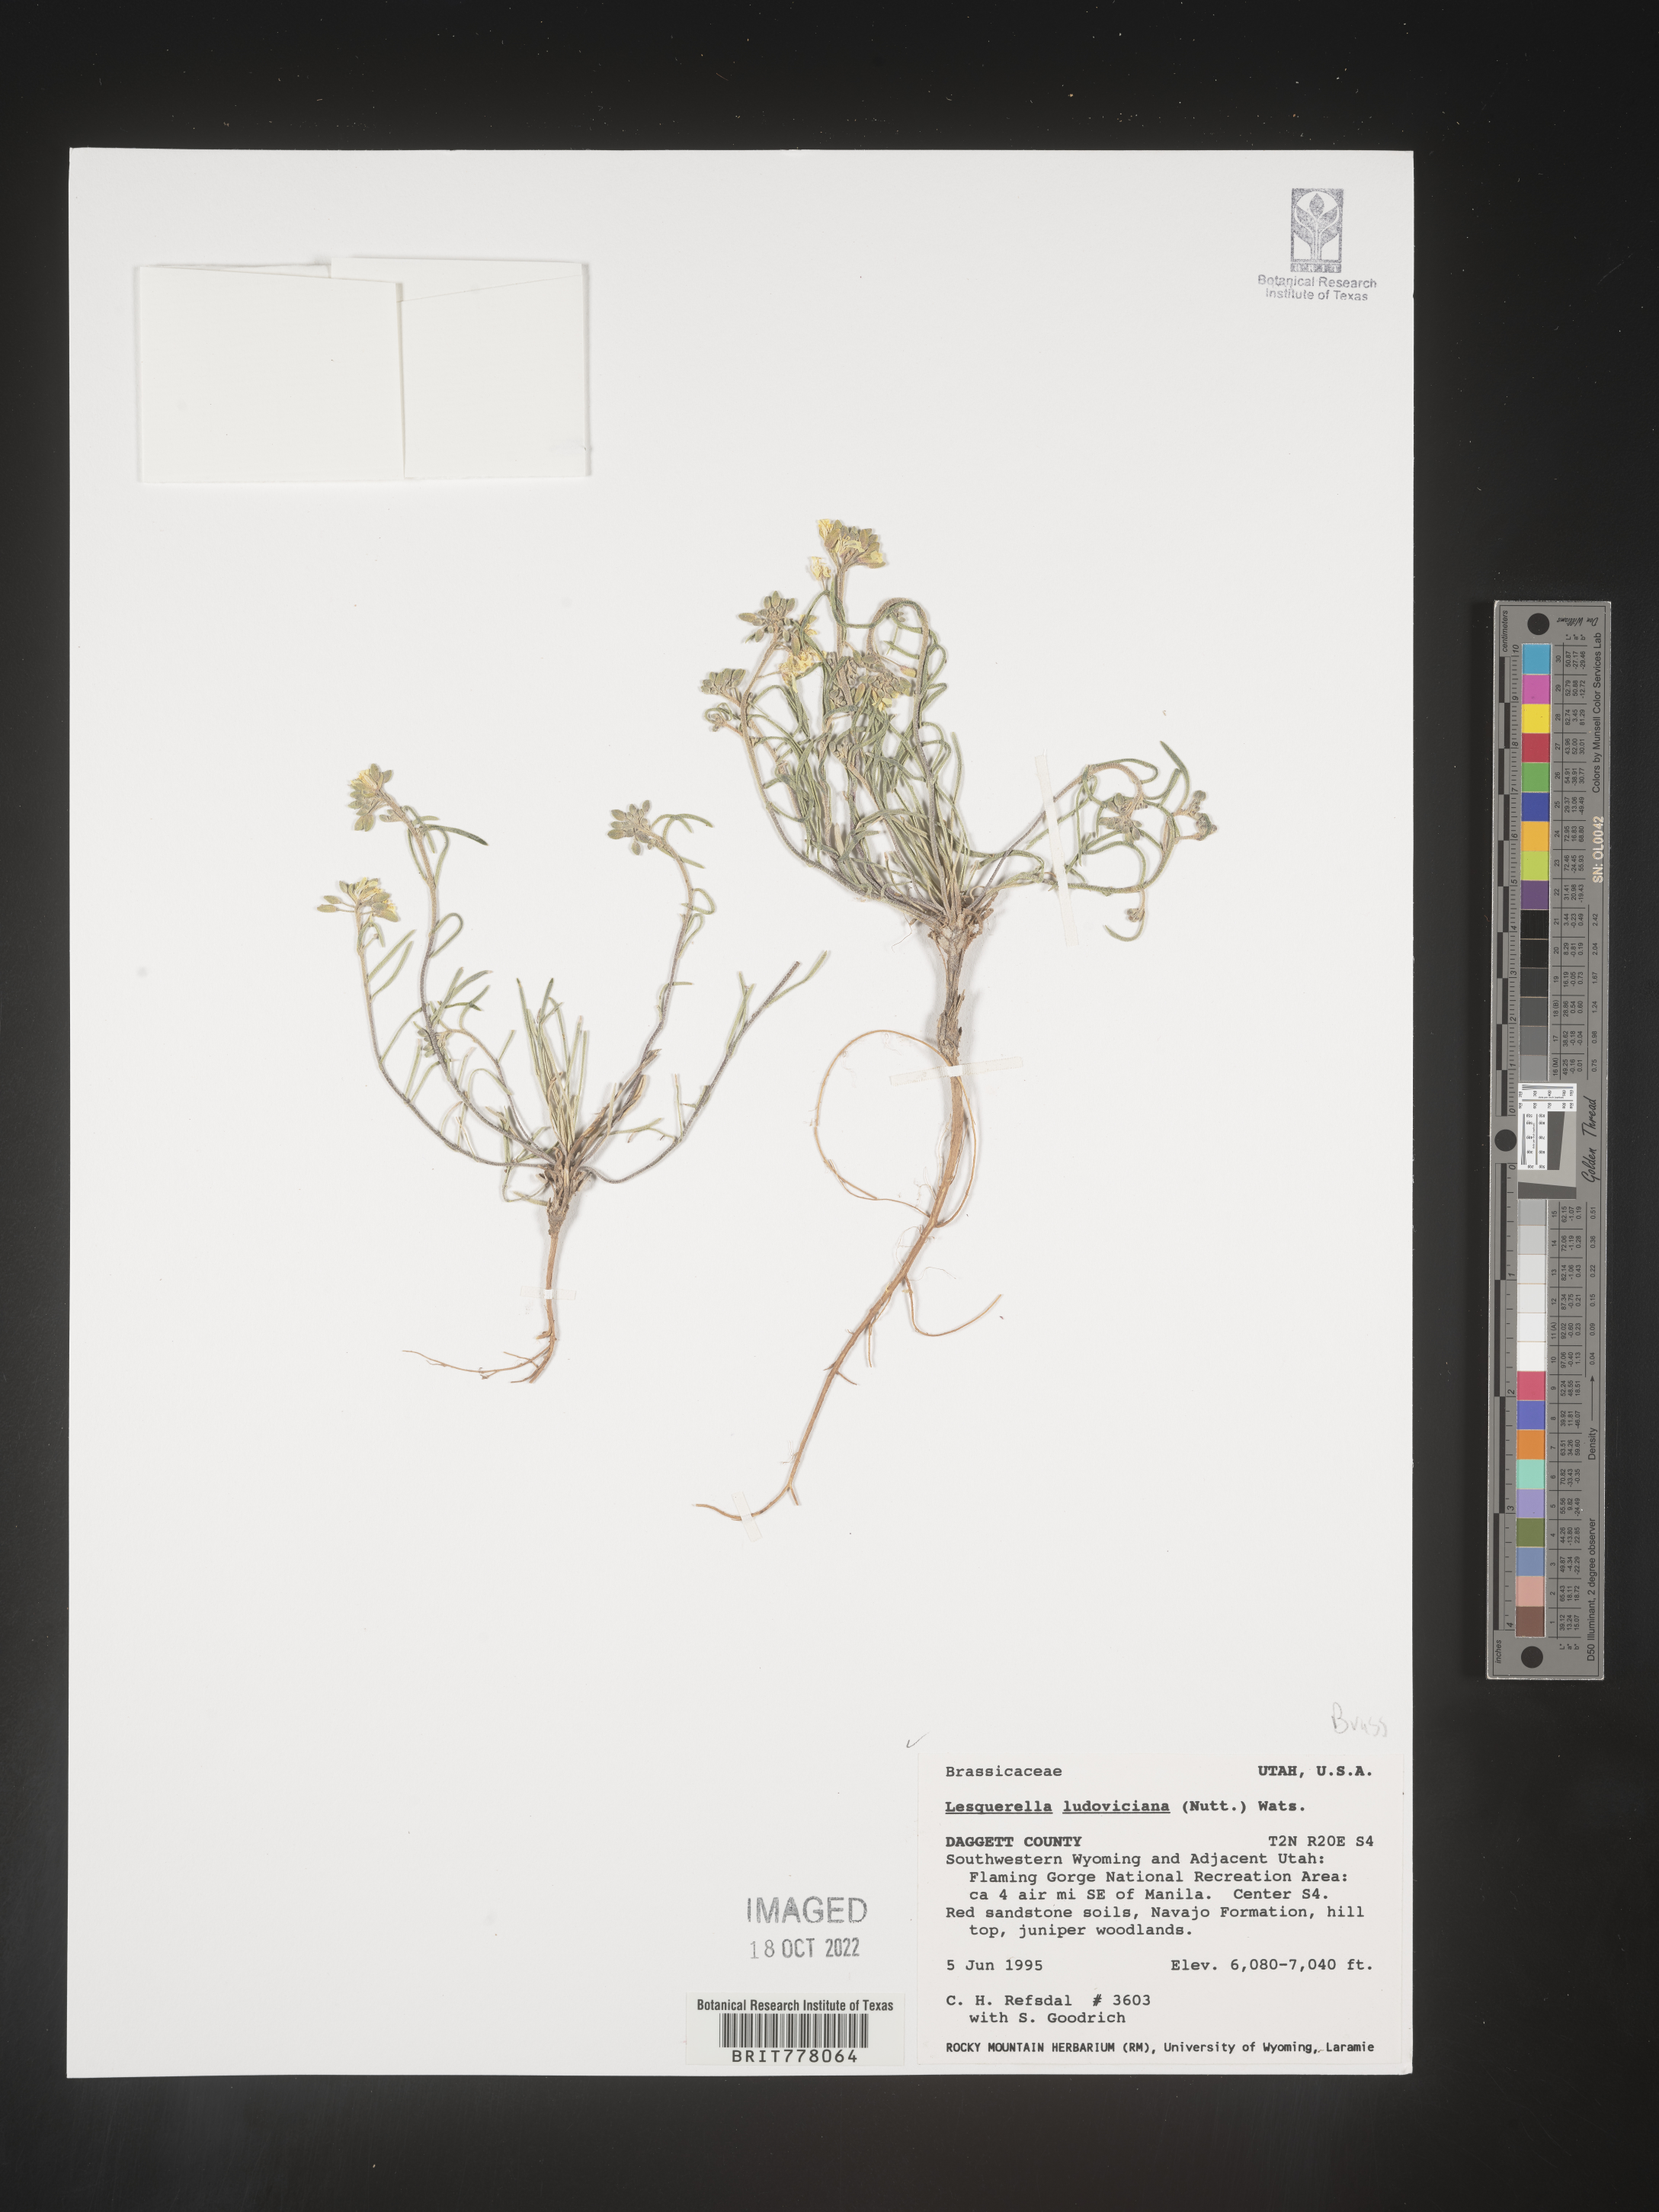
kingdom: Chromista
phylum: Cercozoa
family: Psammonobiotidae
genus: Lesquerella
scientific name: Lesquerella
